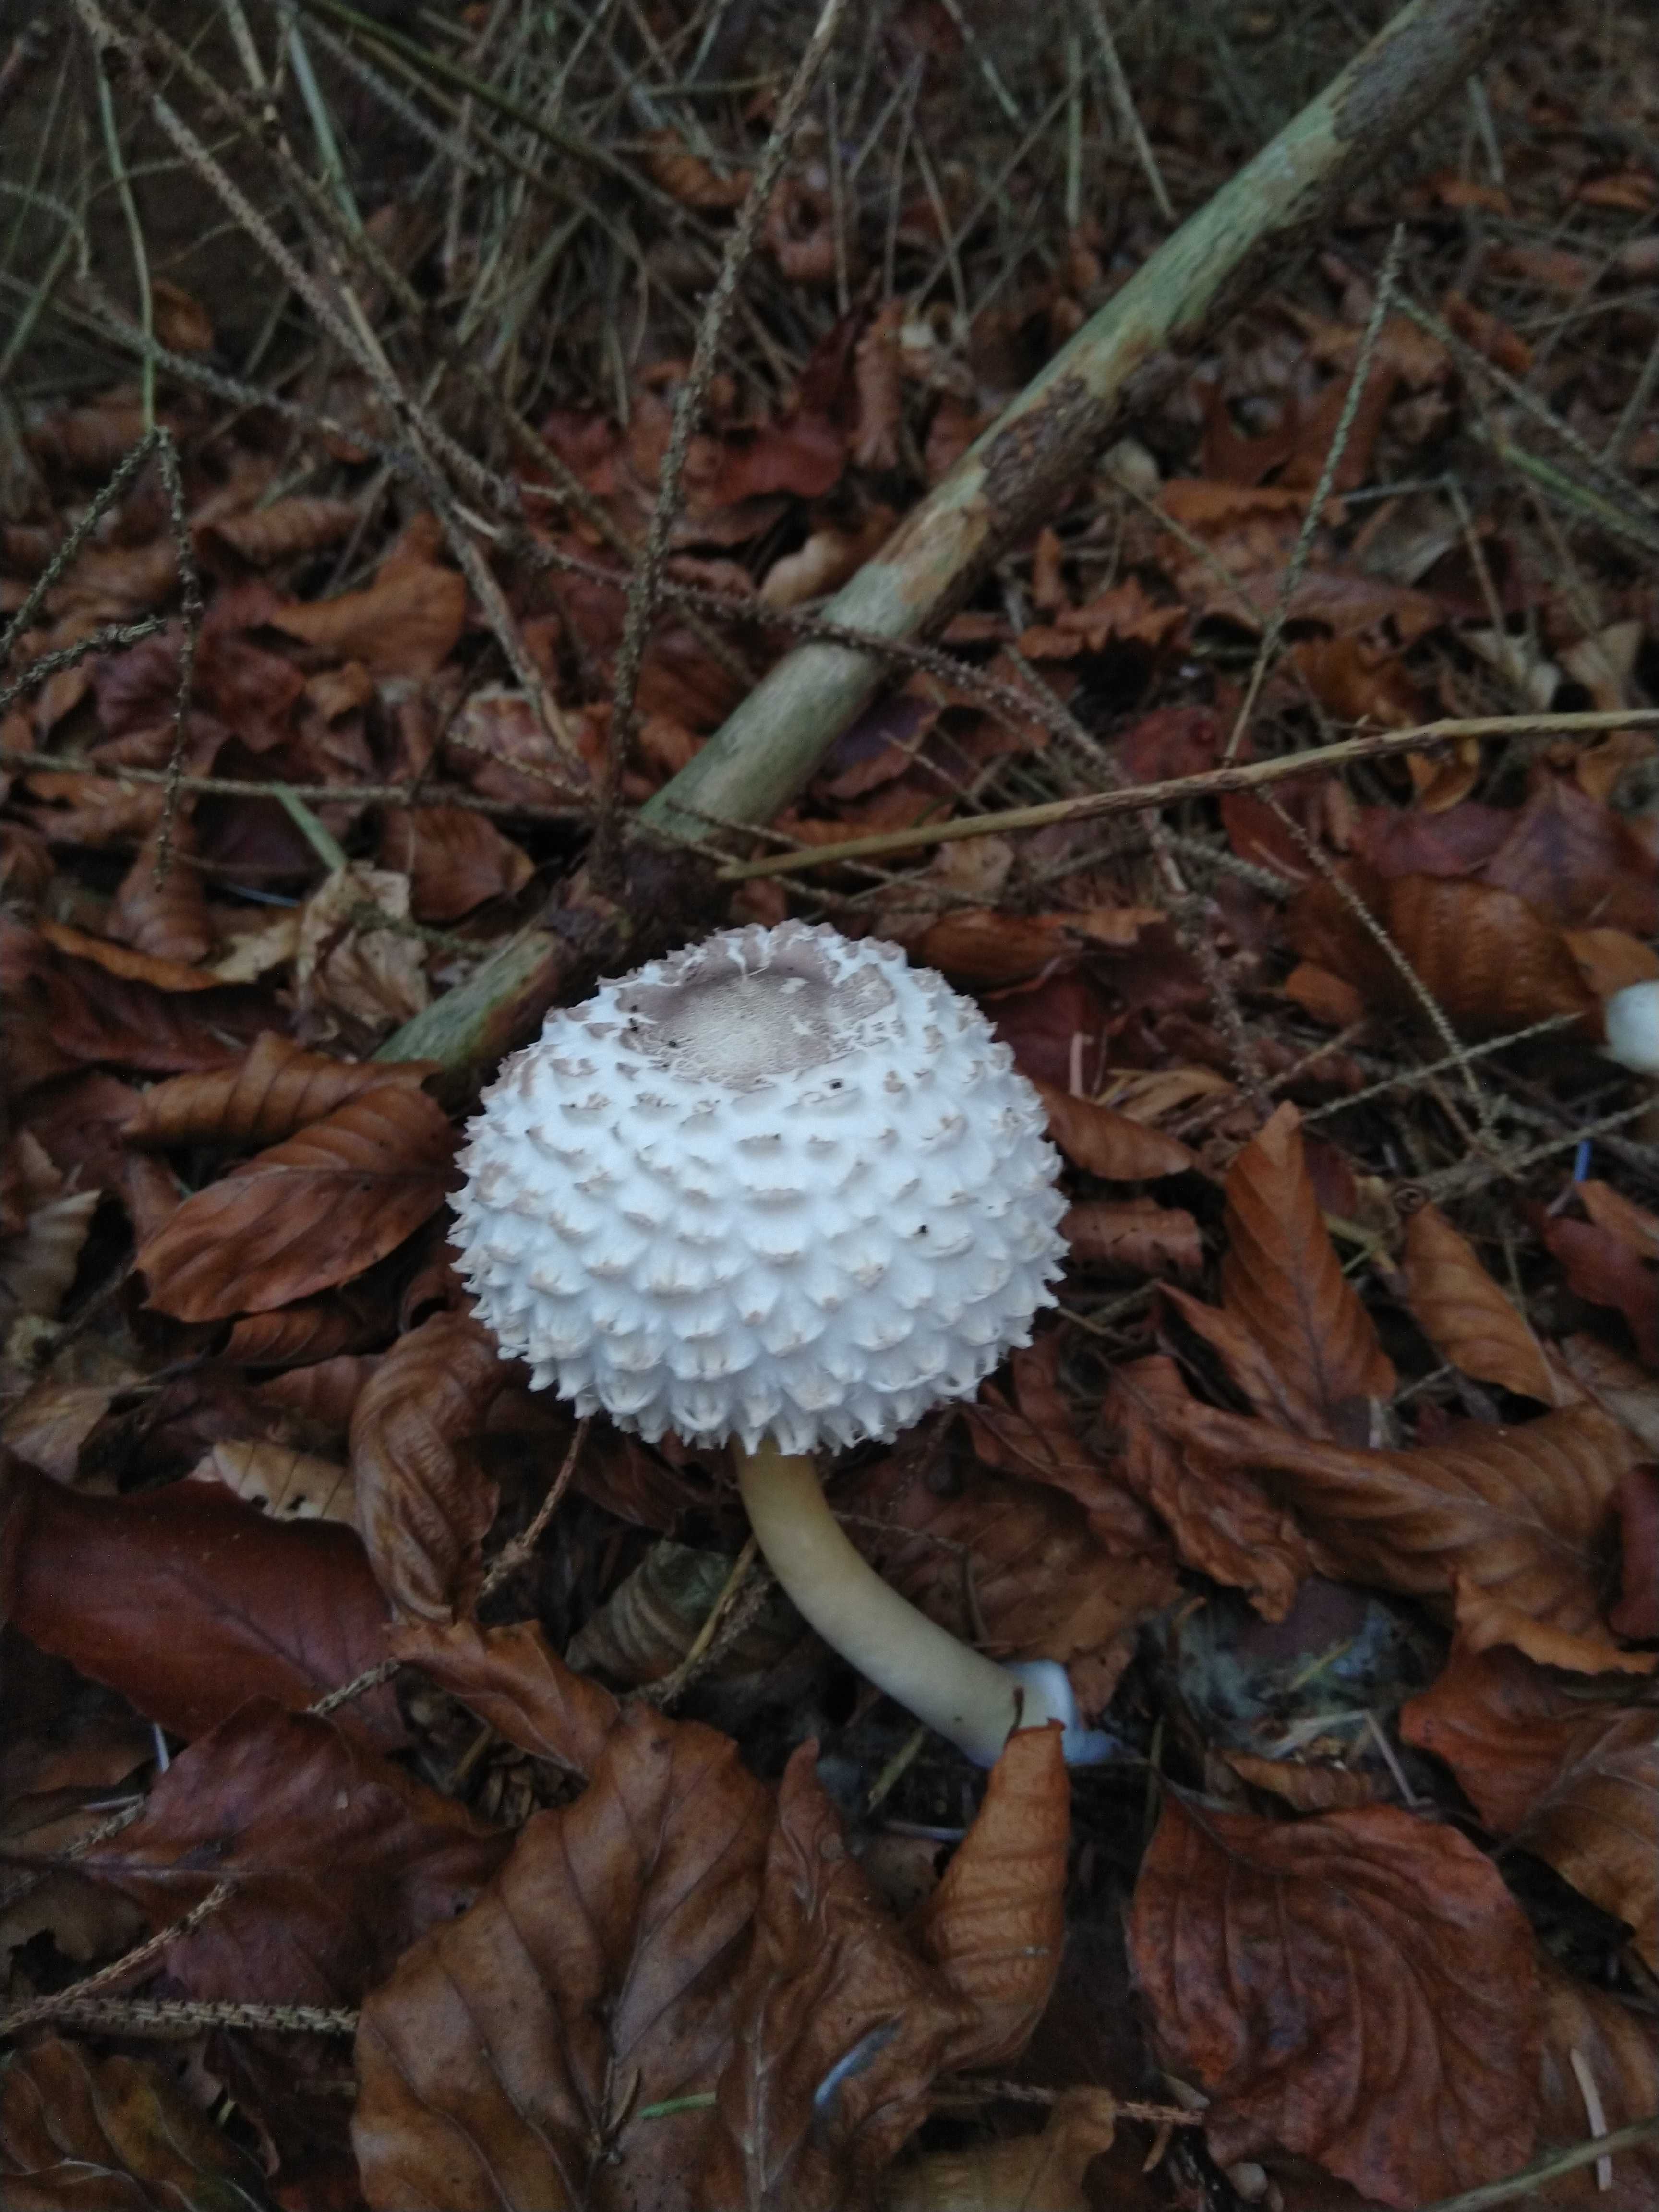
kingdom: Fungi
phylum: Basidiomycota
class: Agaricomycetes
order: Agaricales
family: Agaricaceae
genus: Leucoagaricus
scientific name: Leucoagaricus nympharum
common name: gran-silkehat
